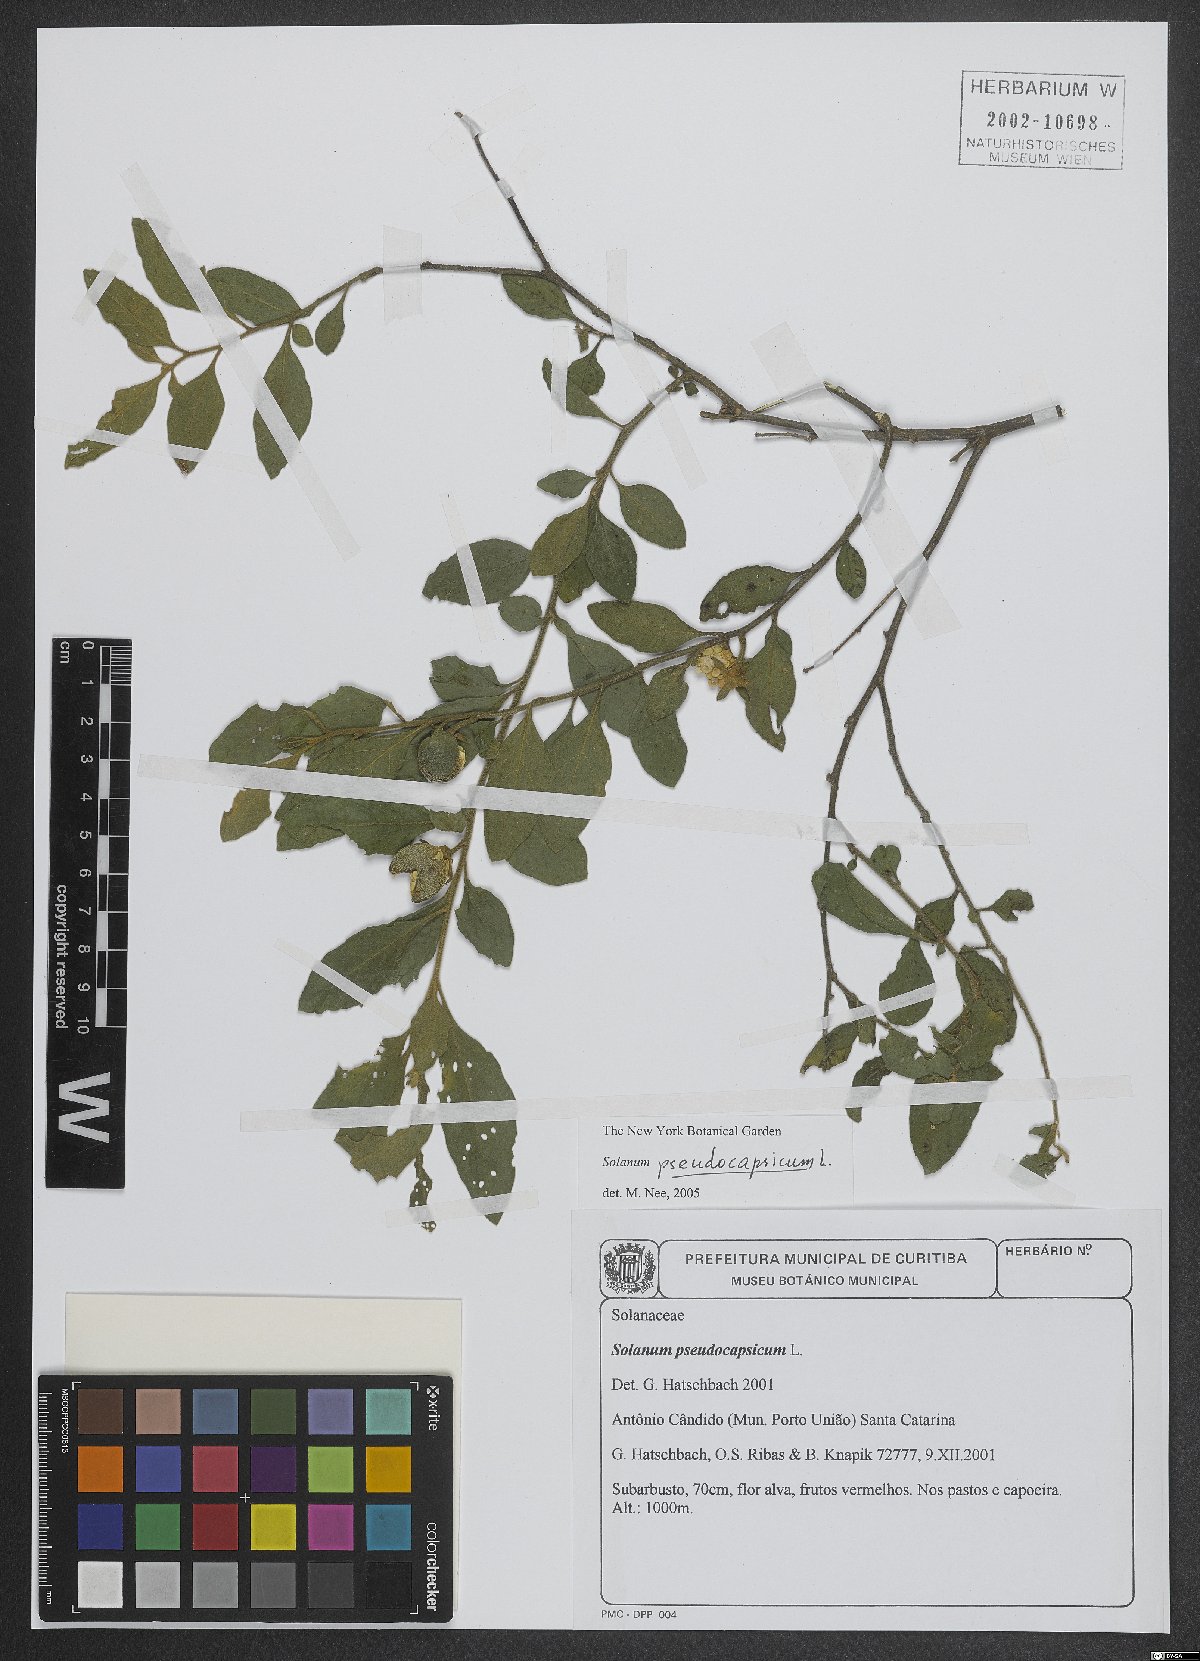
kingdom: Plantae
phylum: Tracheophyta
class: Magnoliopsida
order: Solanales
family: Solanaceae
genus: Solanum
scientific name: Solanum pseudocapsicum
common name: Jerusalem cherry
